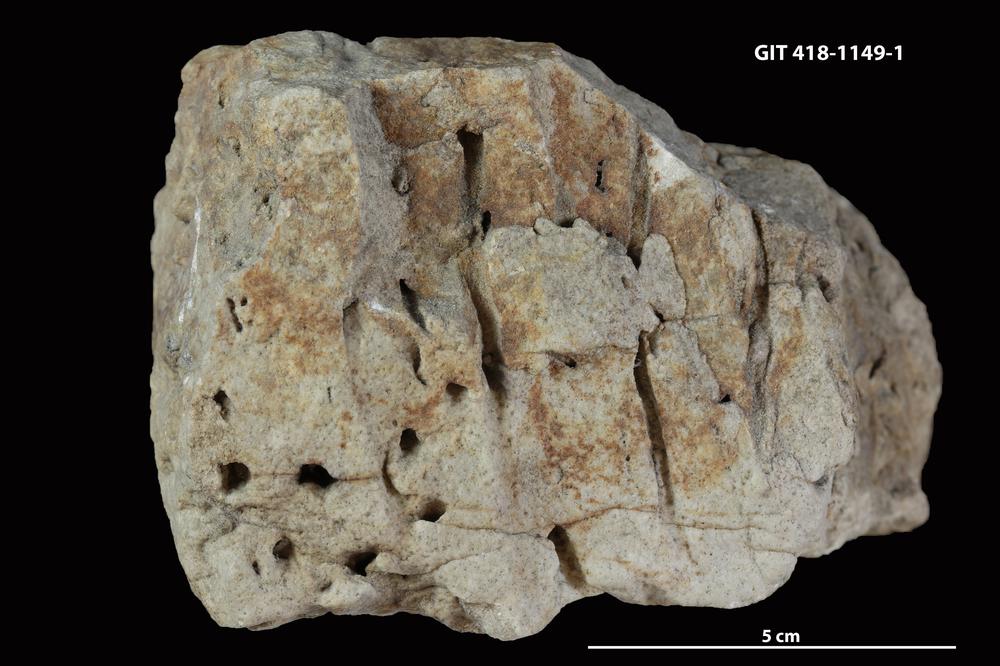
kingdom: Animalia
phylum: Mollusca
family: Siphonichnidae
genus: Skolithos
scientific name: Skolithos
